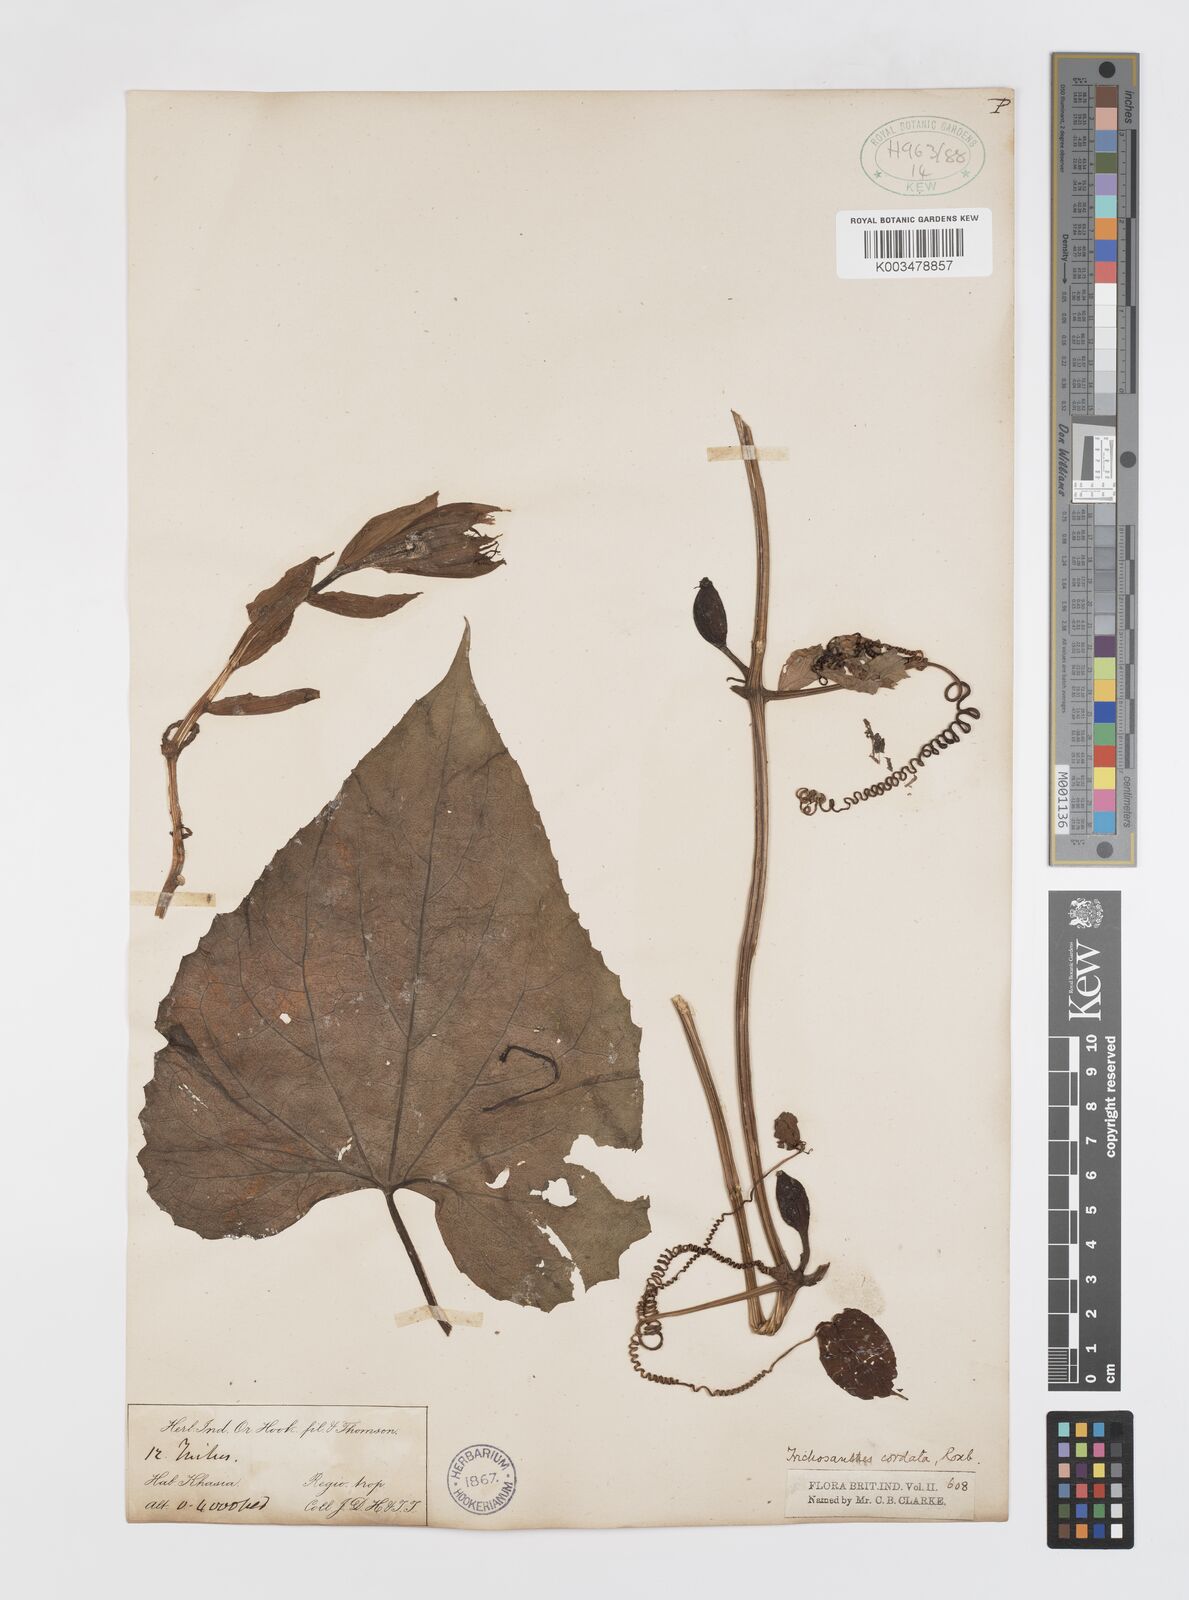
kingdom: Plantae
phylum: Tracheophyta
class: Magnoliopsida
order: Cucurbitales
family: Cucurbitaceae
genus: Trichosanthes
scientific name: Trichosanthes cordata
